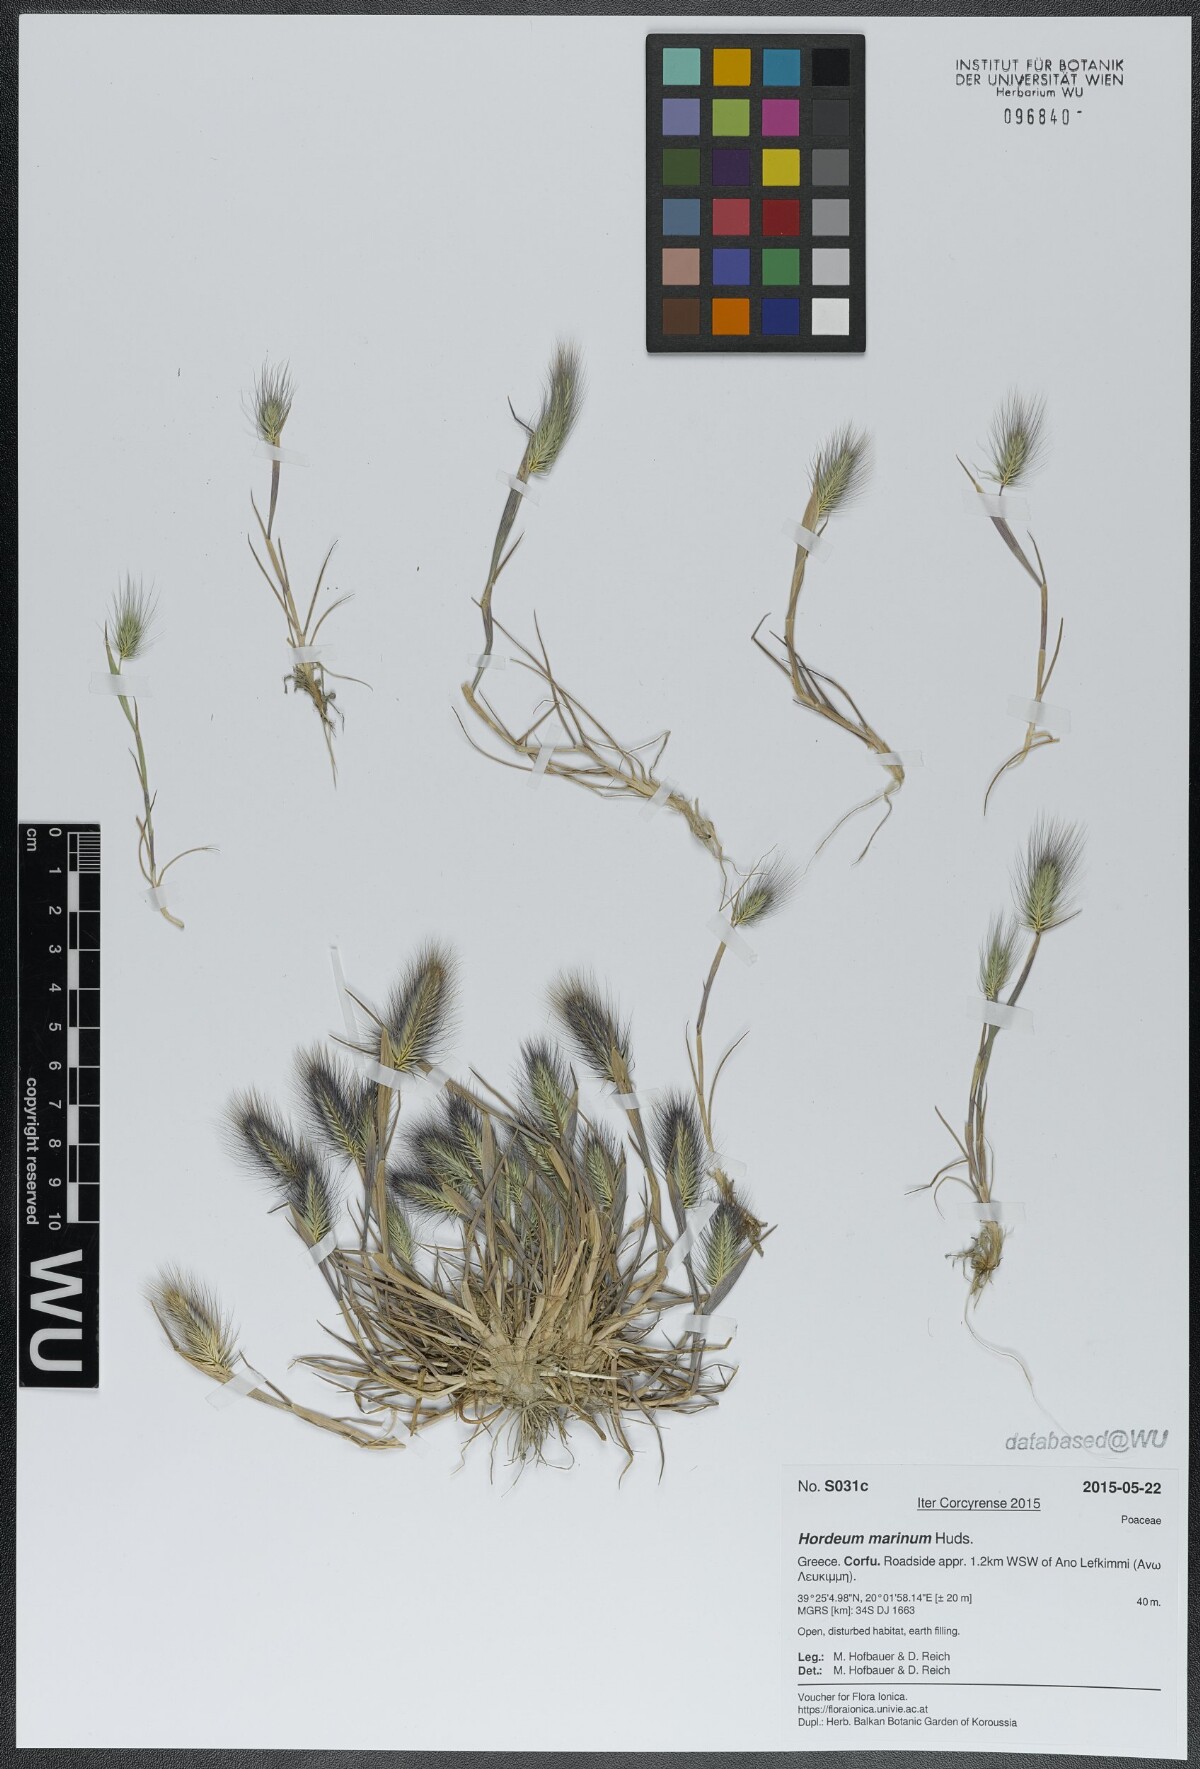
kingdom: Plantae
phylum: Tracheophyta
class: Liliopsida
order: Poales
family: Poaceae
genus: Hordeum
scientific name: Hordeum marinum
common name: Sea barley
